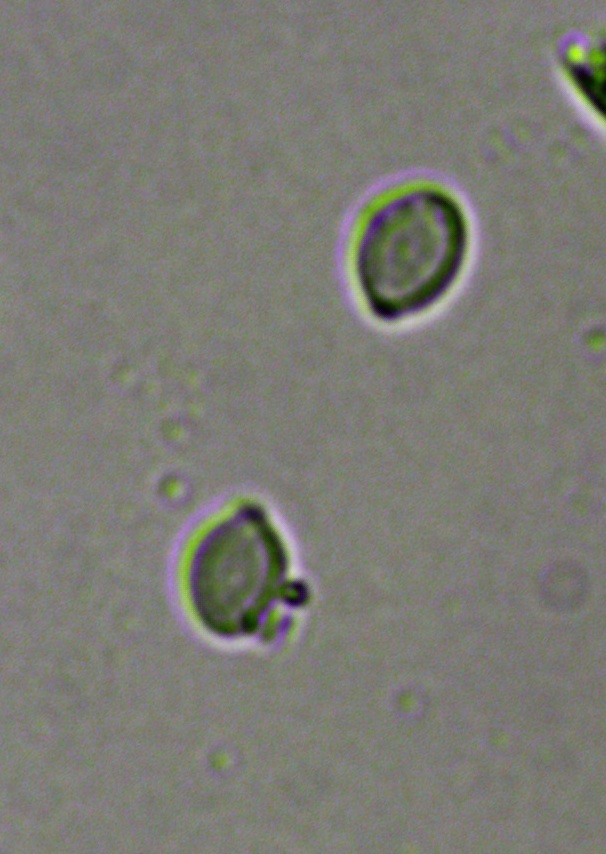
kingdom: Fungi
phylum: Ascomycota
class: Sordariomycetes
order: Xylariales
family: Hypoxylaceae
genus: Hypoxylon
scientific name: Hypoxylon rubiginosum
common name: rustfarvet kulbær
